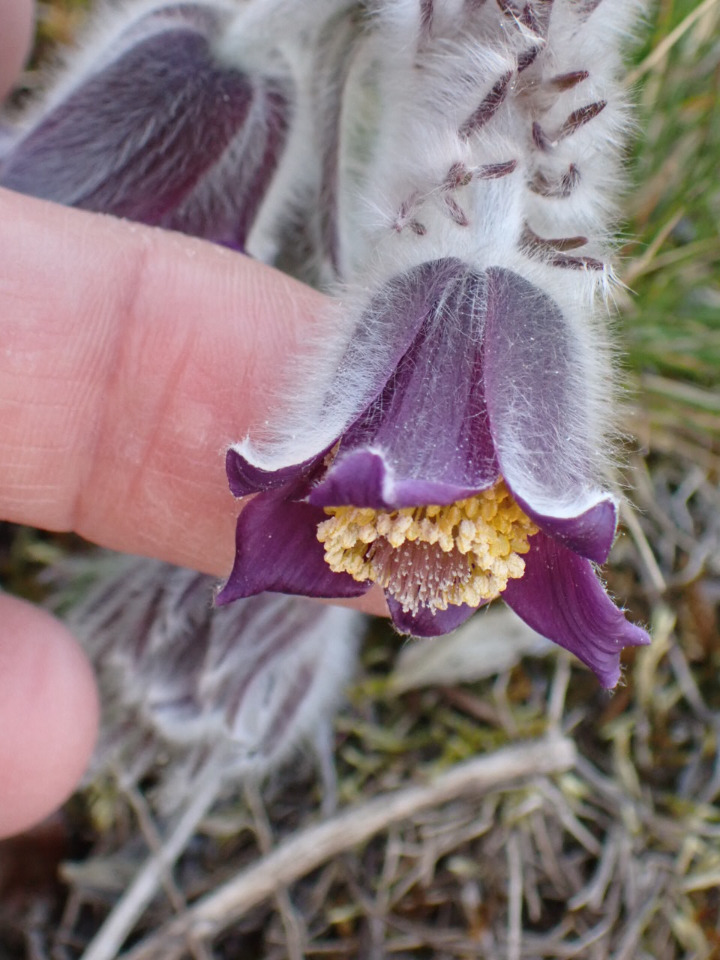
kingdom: Plantae
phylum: Tracheophyta
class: Magnoliopsida
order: Ranunculales
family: Ranunculaceae
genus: Pulsatilla
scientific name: Pulsatilla pratensis
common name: Nikkende kobjælde
